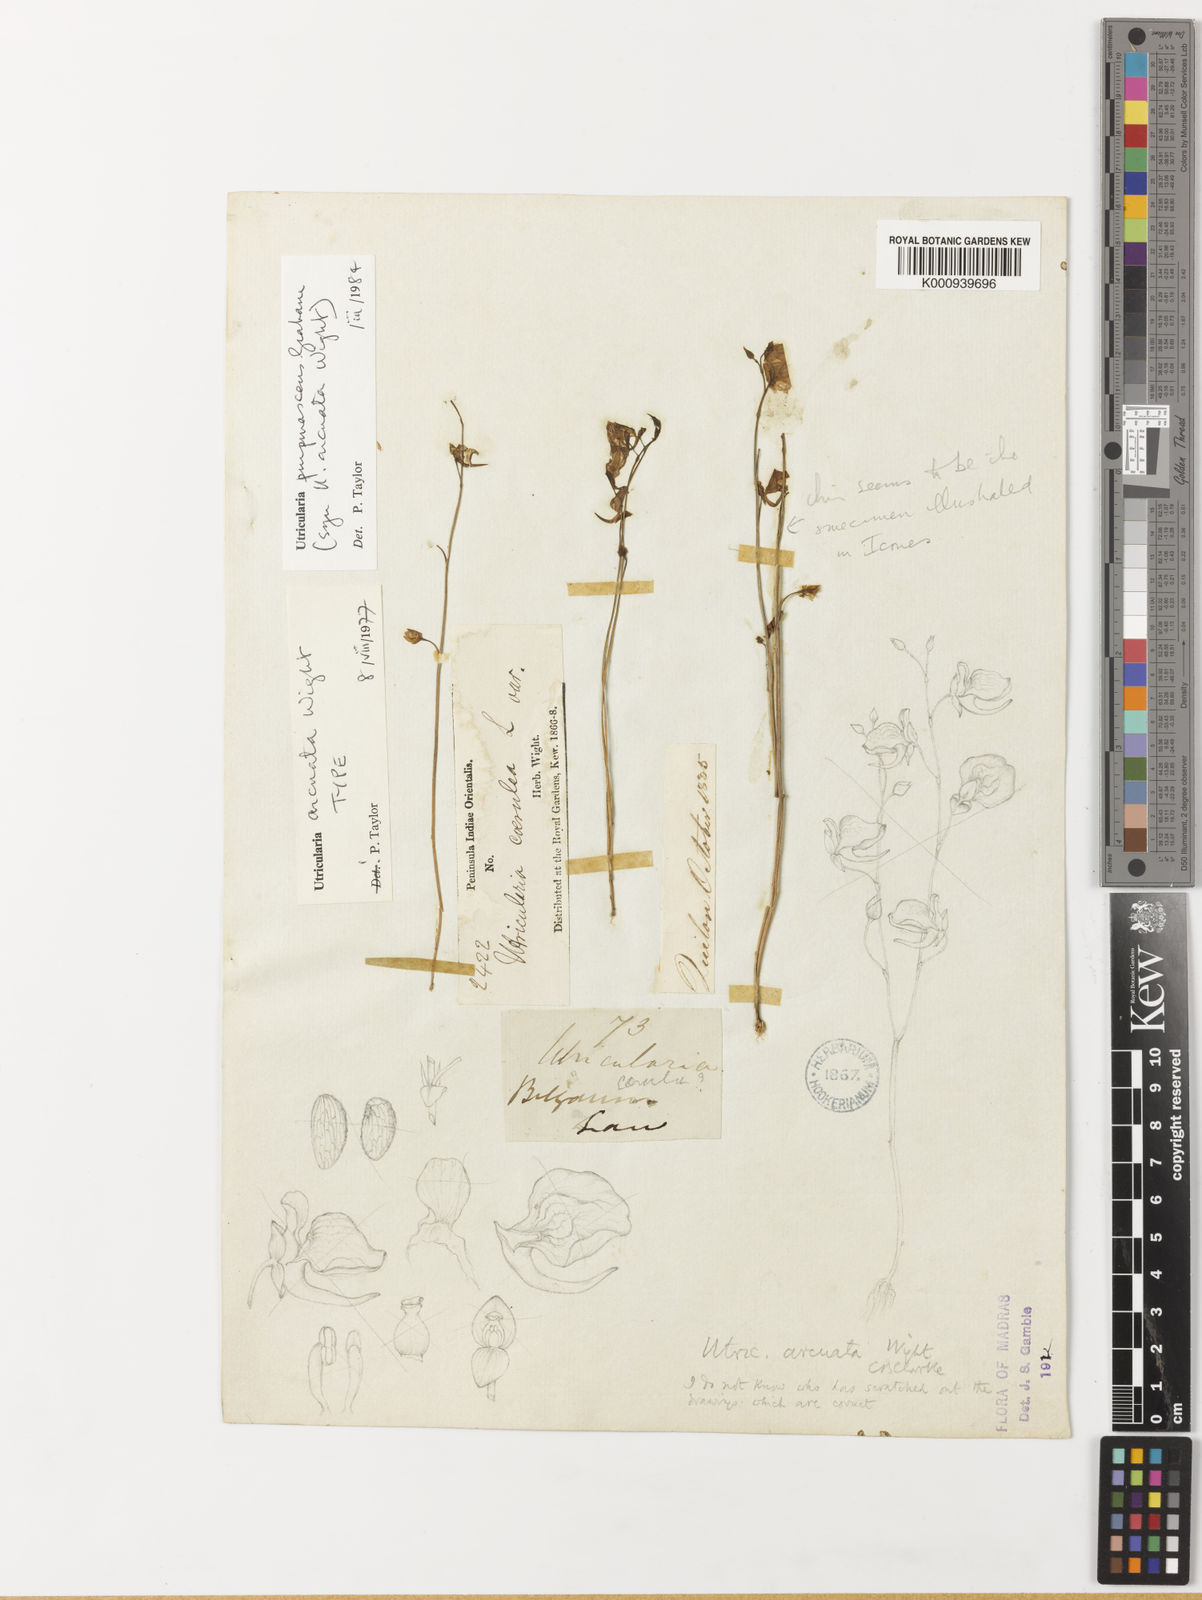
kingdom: Plantae
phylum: Tracheophyta
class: Magnoliopsida
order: Lamiales
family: Lentibulariaceae
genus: Utricularia
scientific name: Utricularia graminifolia
